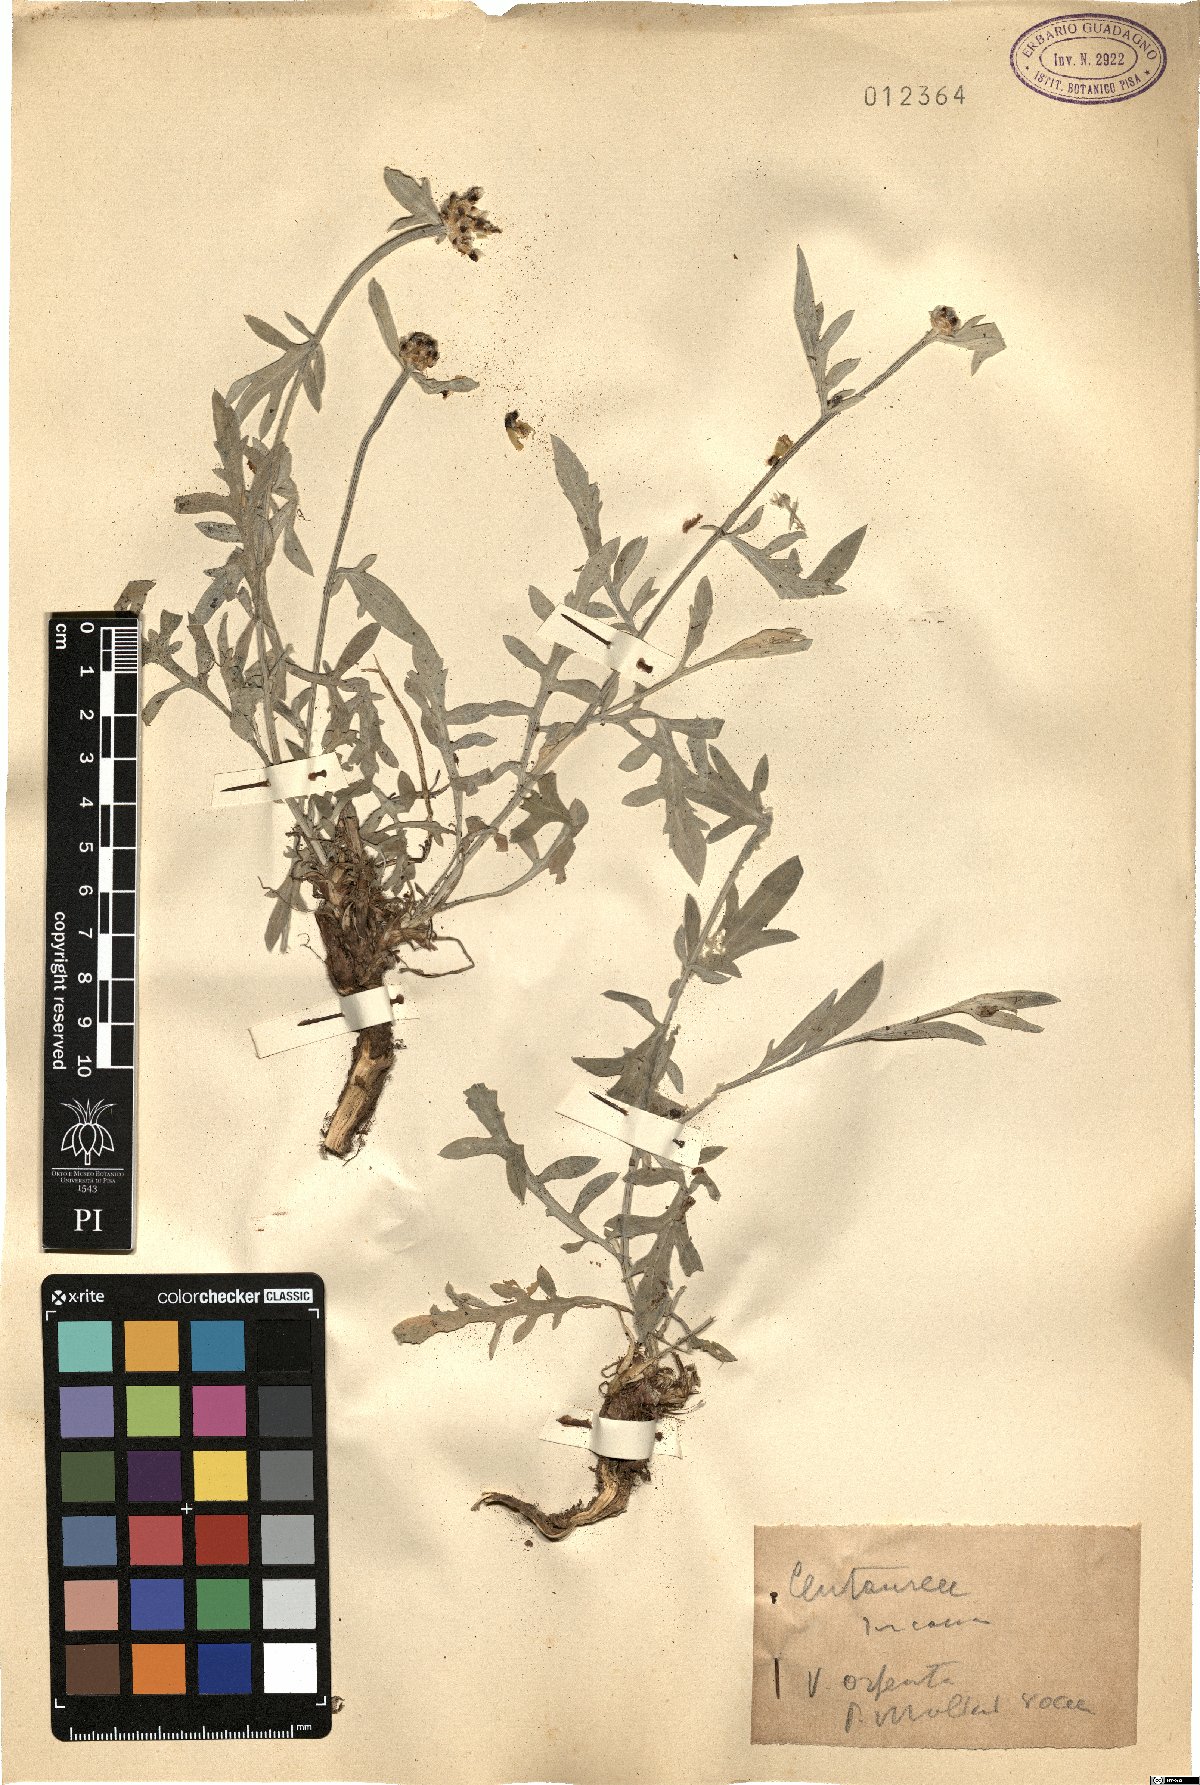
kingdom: Plantae
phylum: Tracheophyta
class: Magnoliopsida
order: Asterales
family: Asteraceae
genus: Centaurea
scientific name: Centaurea tenoreana
